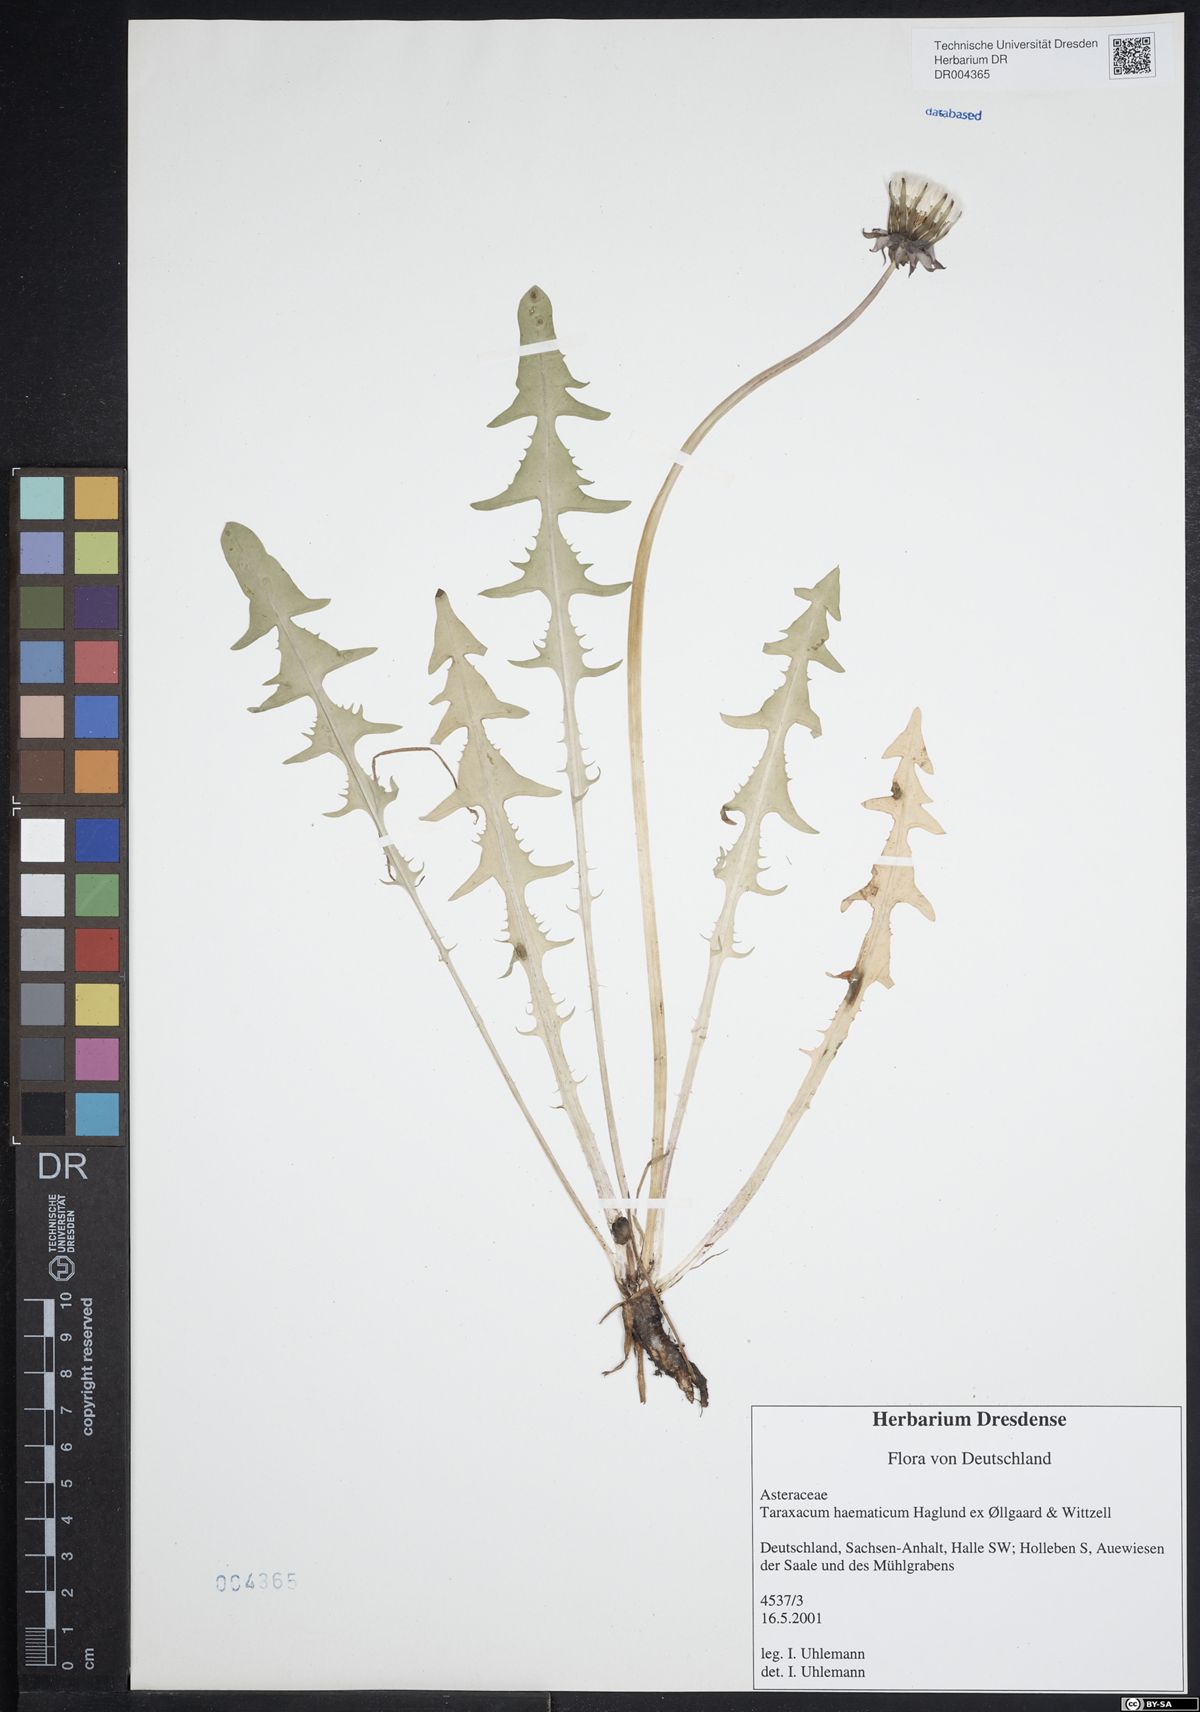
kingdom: Plantae
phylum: Tracheophyta
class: Magnoliopsida
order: Asterales
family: Asteraceae
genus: Taraxacum
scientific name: Taraxacum haematicum
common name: Blood-red dandelion
